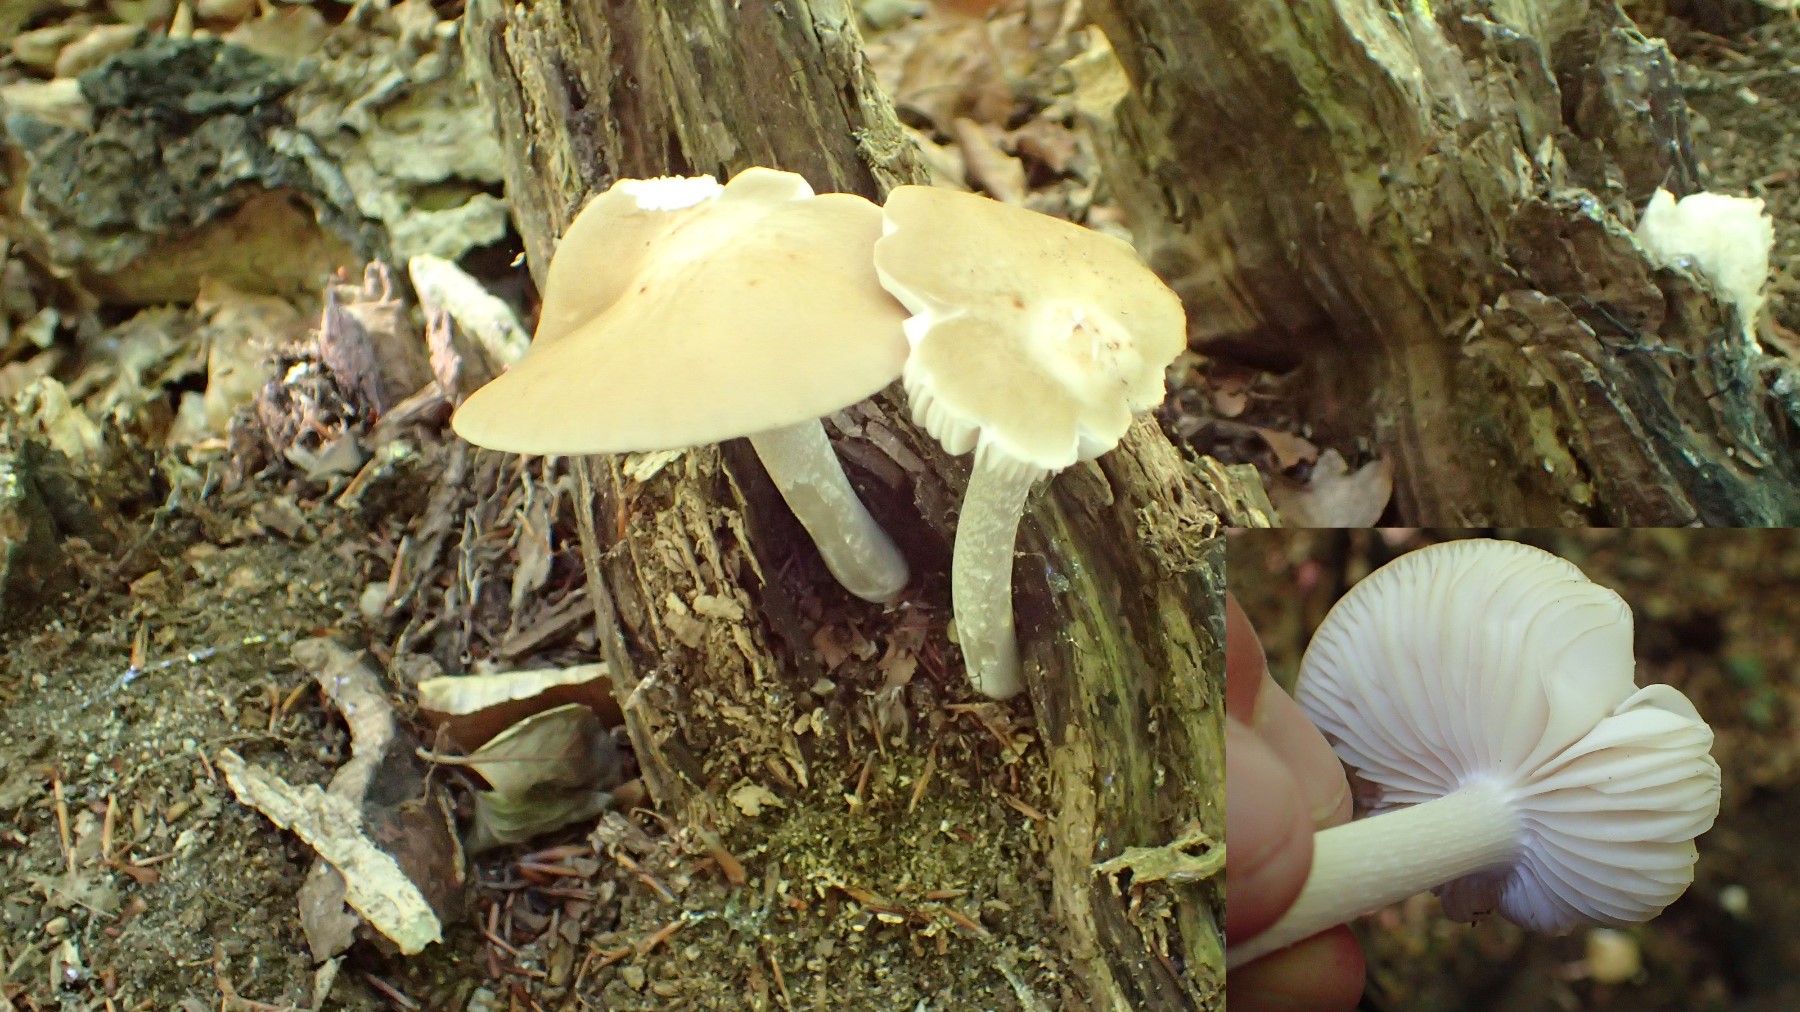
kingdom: Fungi
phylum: Basidiomycota
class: Agaricomycetes
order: Agaricales
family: Tricholomataceae
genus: Megacollybia
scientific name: Megacollybia platyphylla
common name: bredbladet væbnerhat
